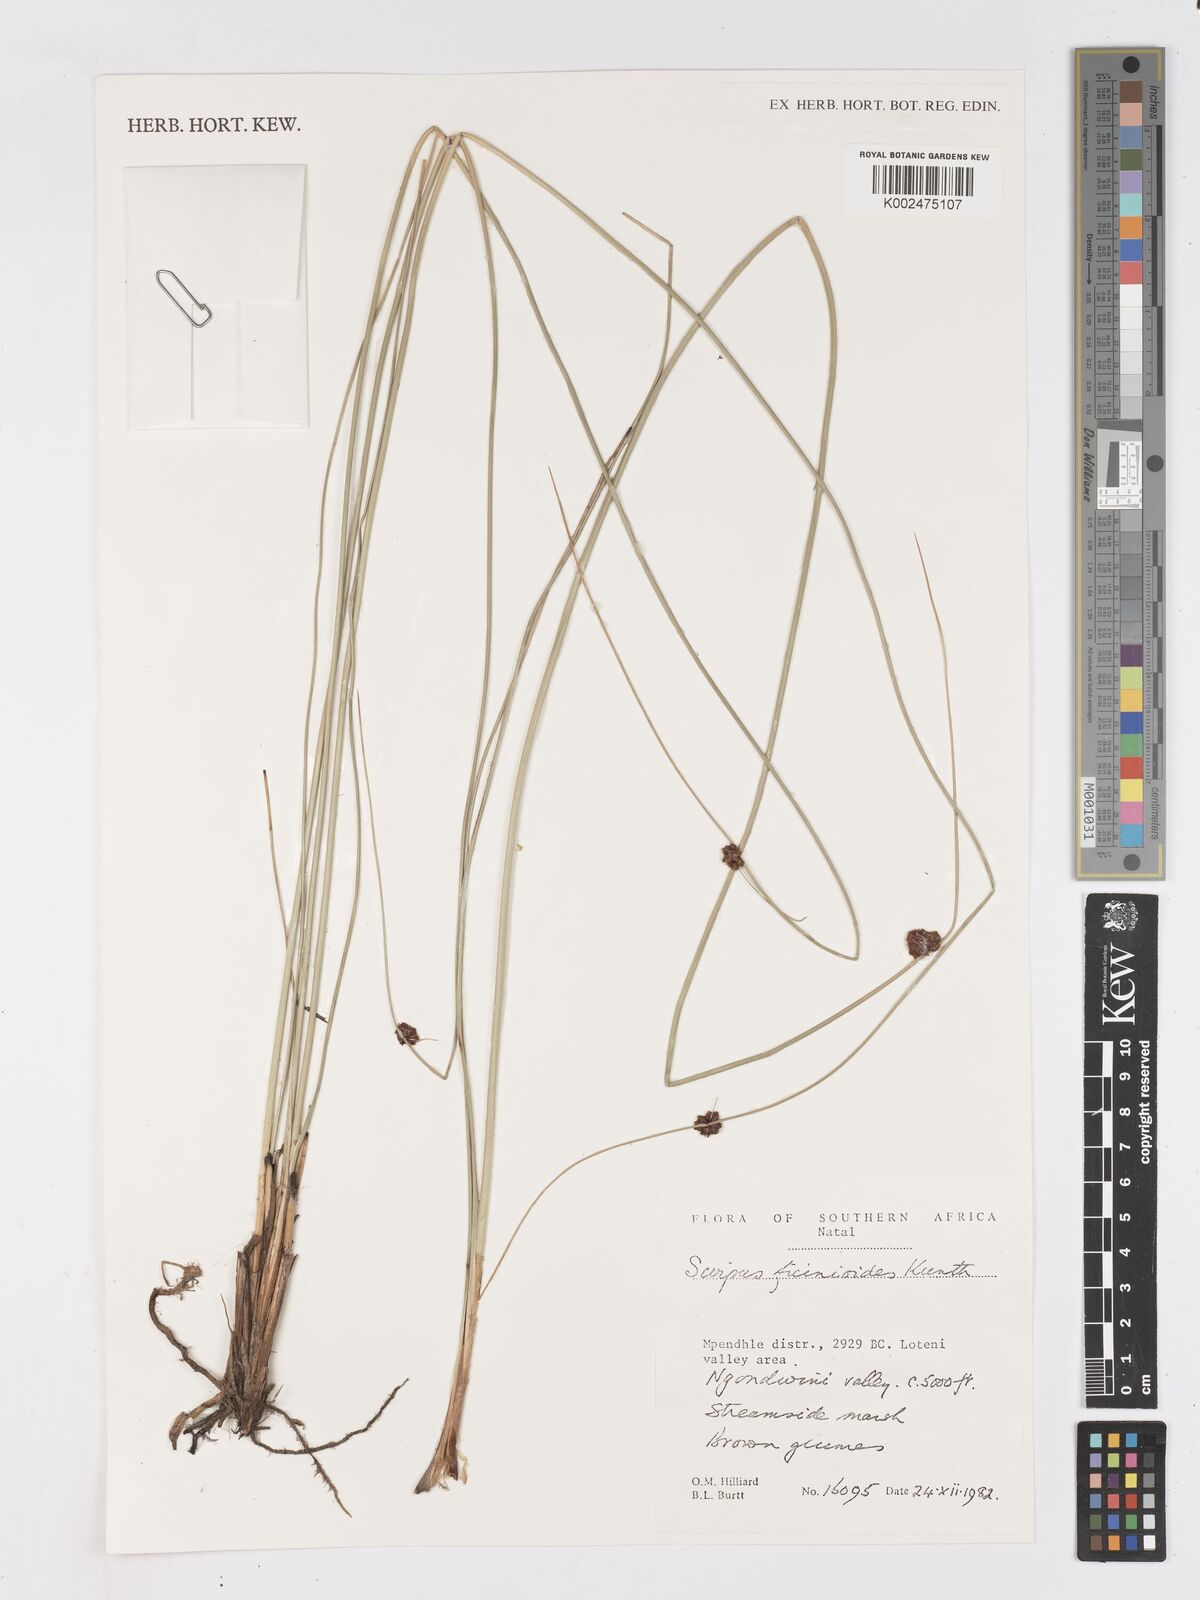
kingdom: Plantae
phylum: Tracheophyta
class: Liliopsida
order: Poales
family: Cyperaceae
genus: Ficinia
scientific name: Ficinia filiformis
